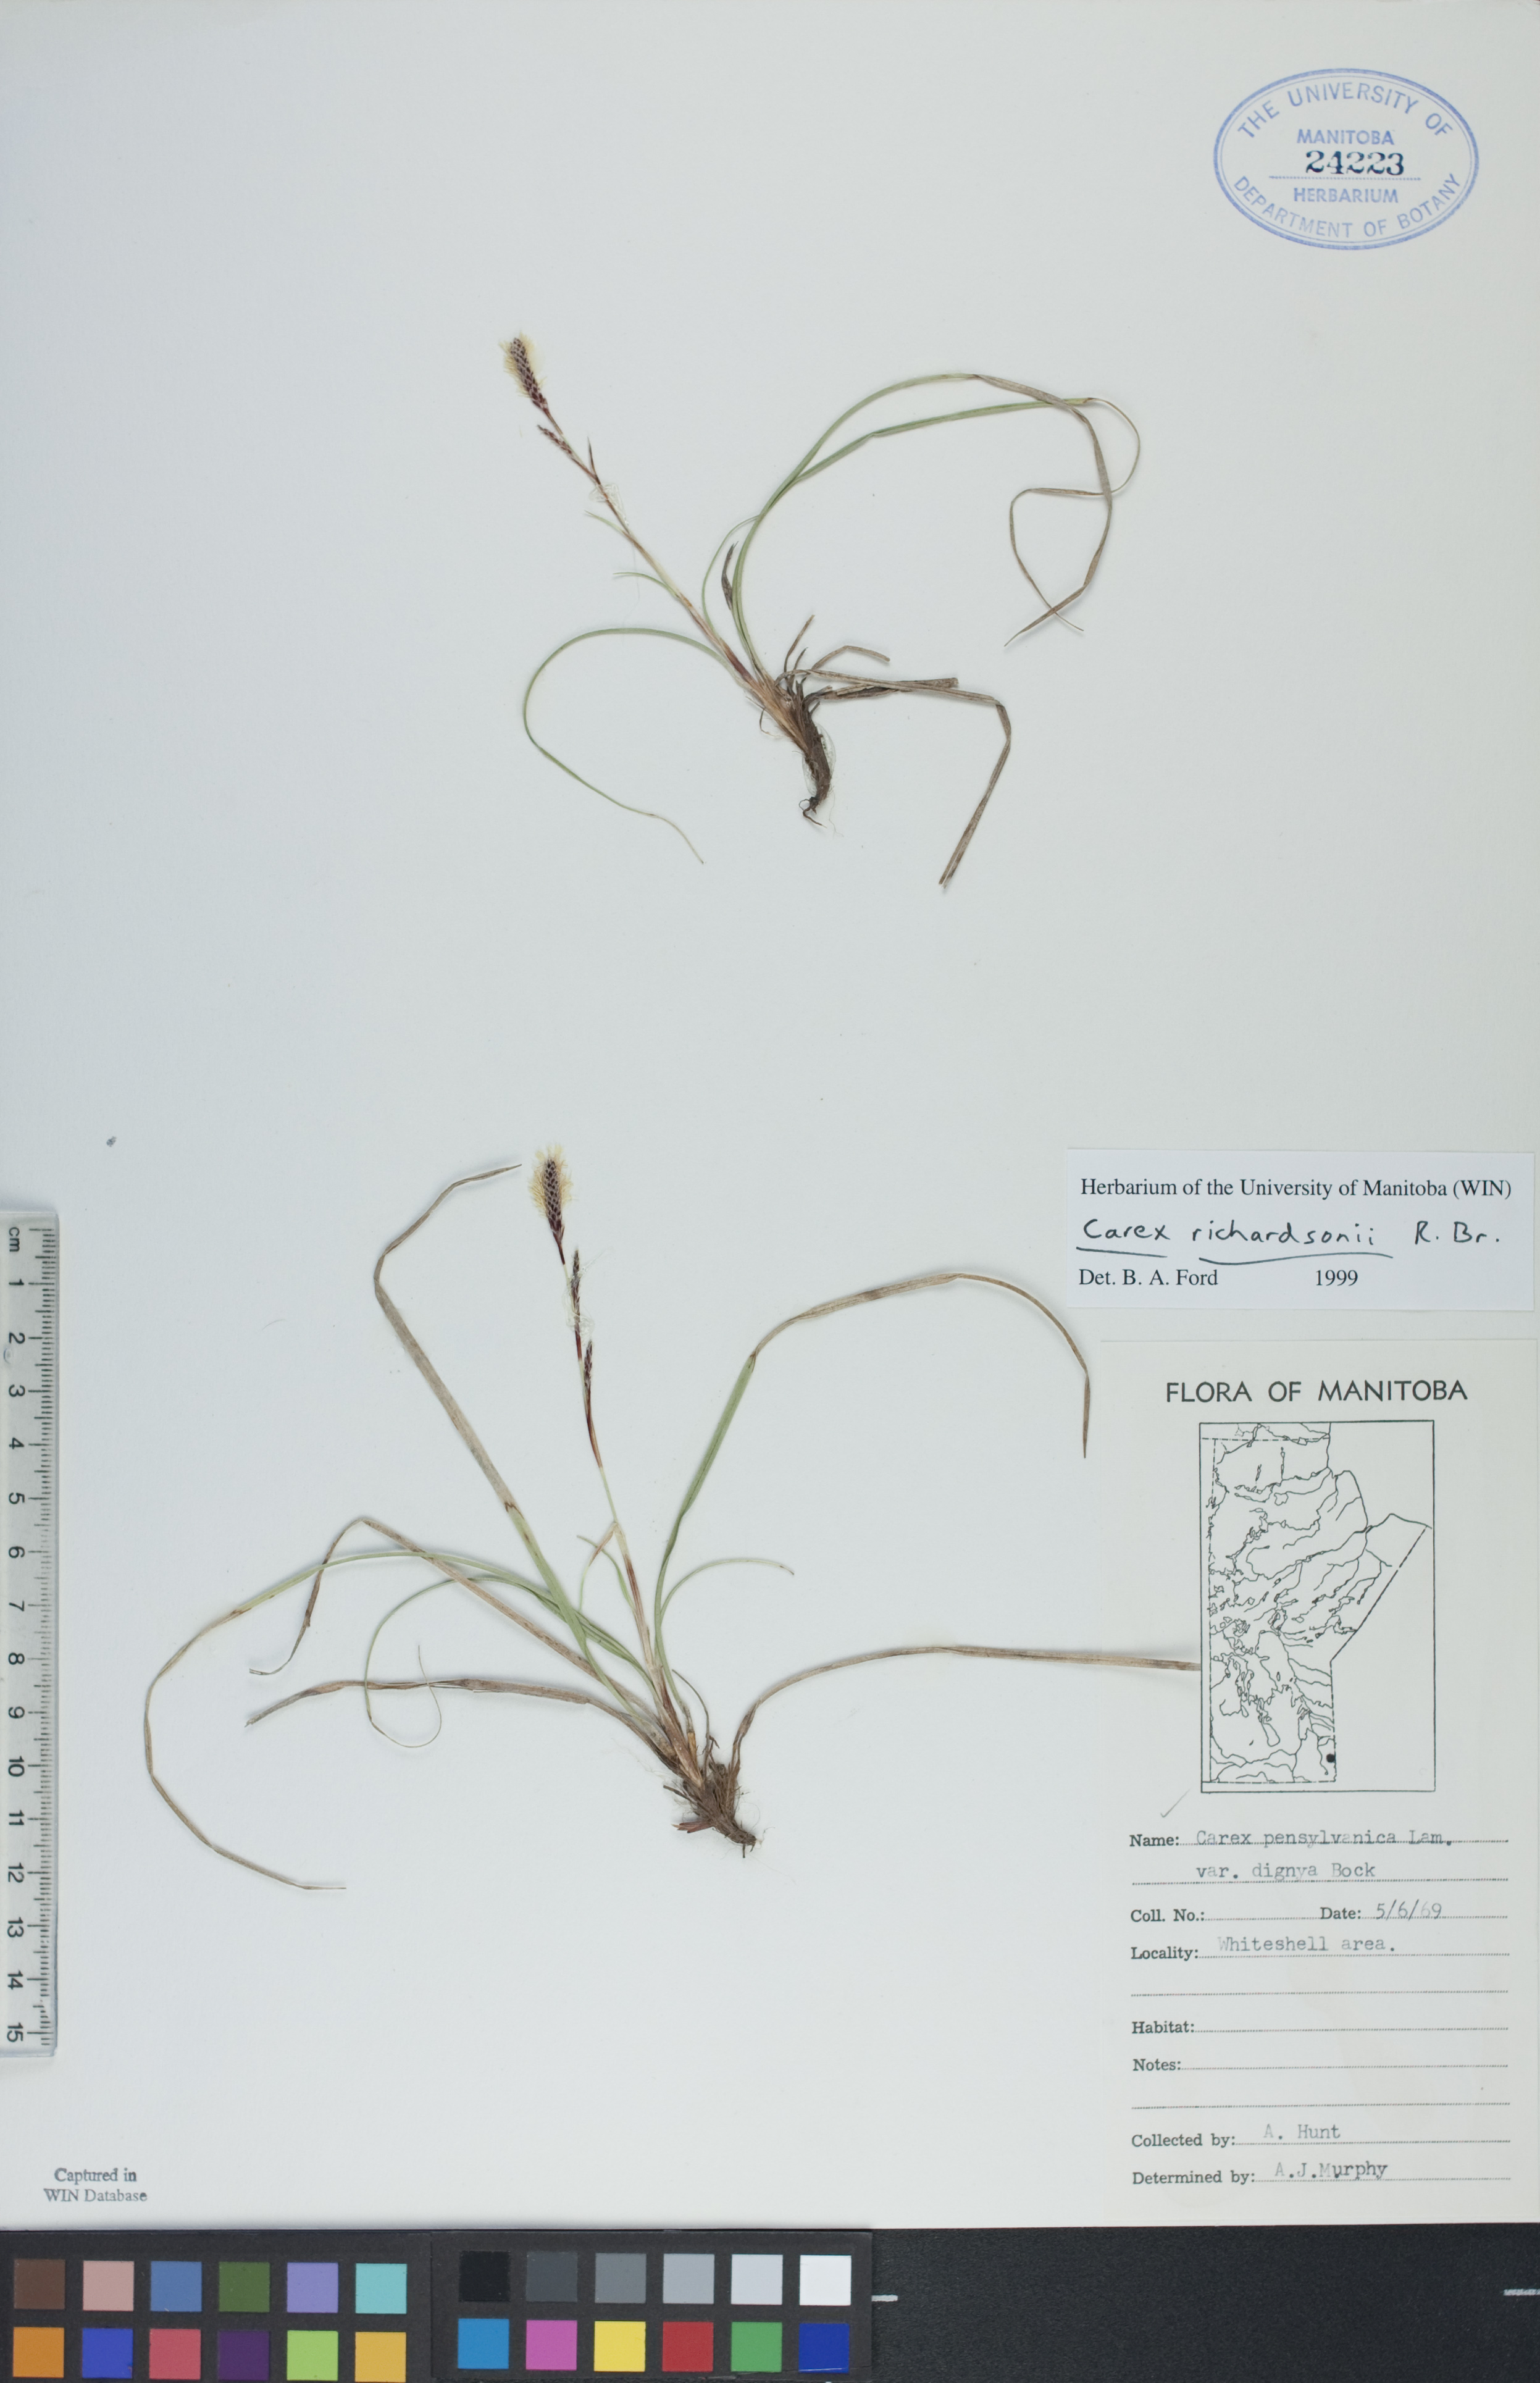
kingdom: Plantae
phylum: Tracheophyta
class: Liliopsida
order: Poales
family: Cyperaceae
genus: Carex
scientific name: Carex richardsonii
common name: Prairie hummock sedge
